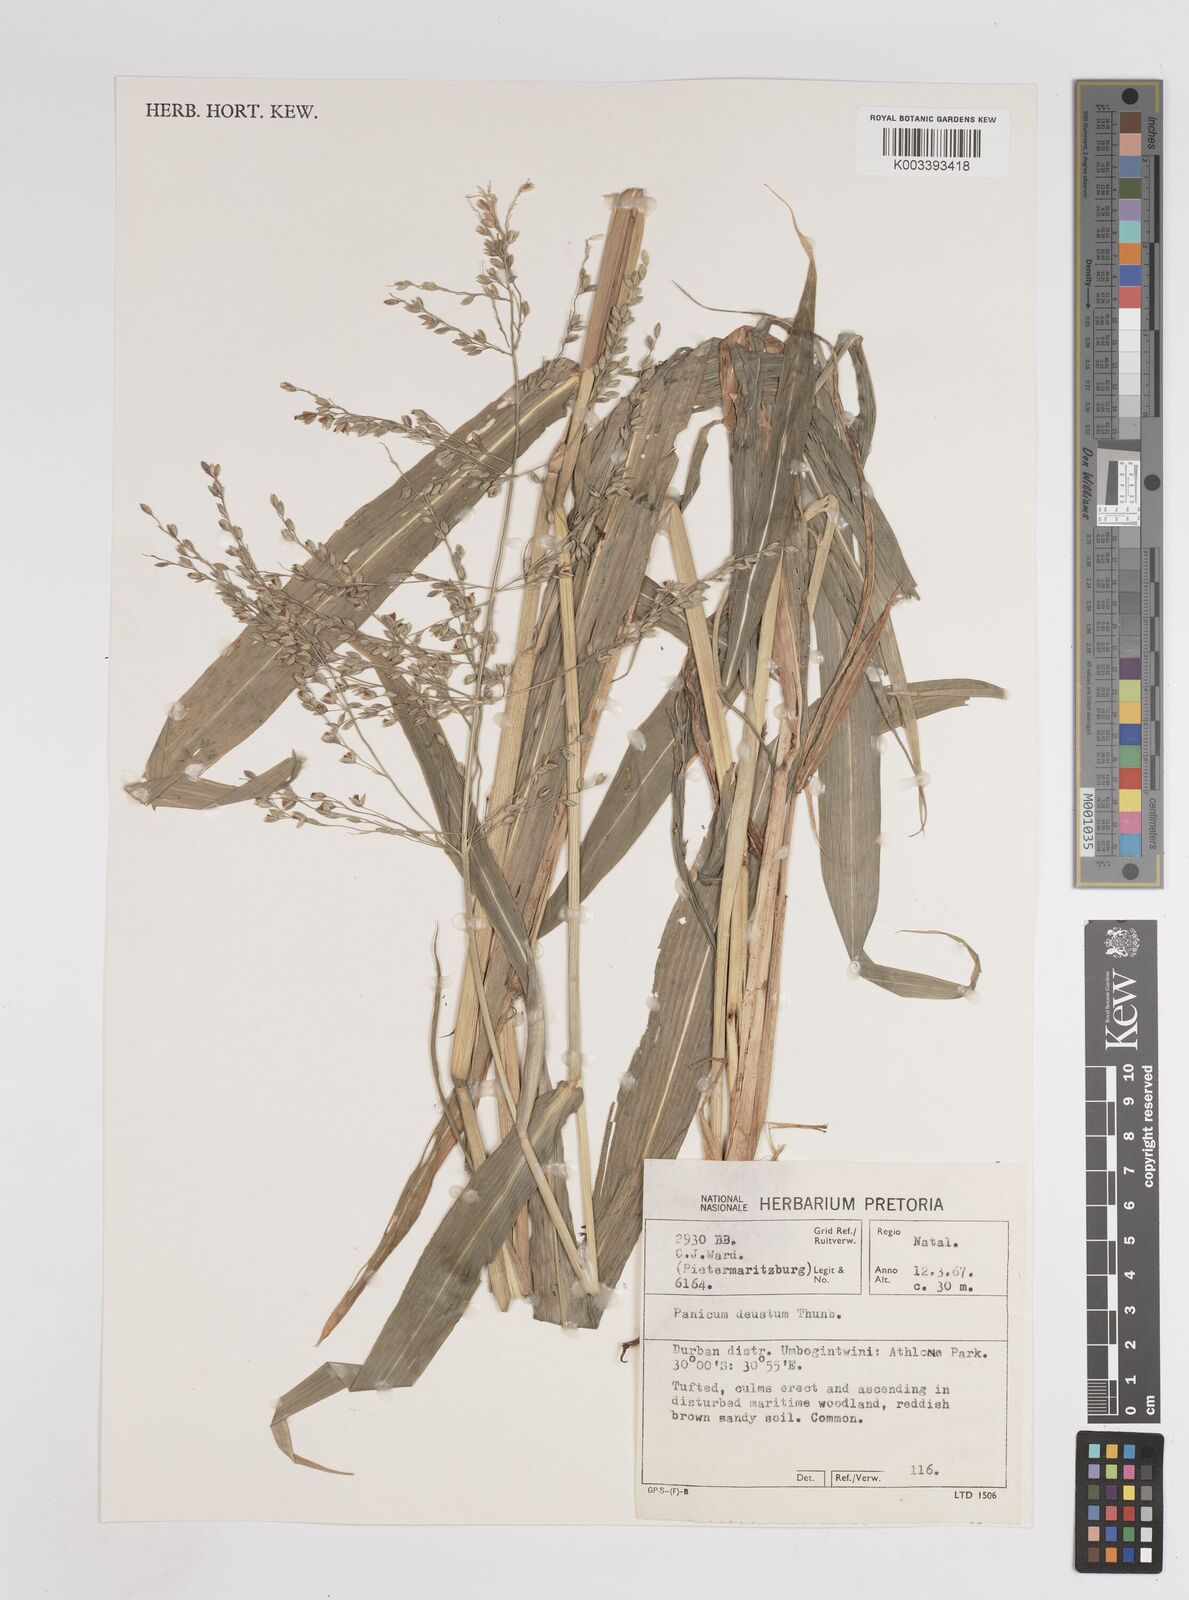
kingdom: Plantae
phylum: Tracheophyta
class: Liliopsida
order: Poales
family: Poaceae
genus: Panicum
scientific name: Panicum deustum
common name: Reed panicum
